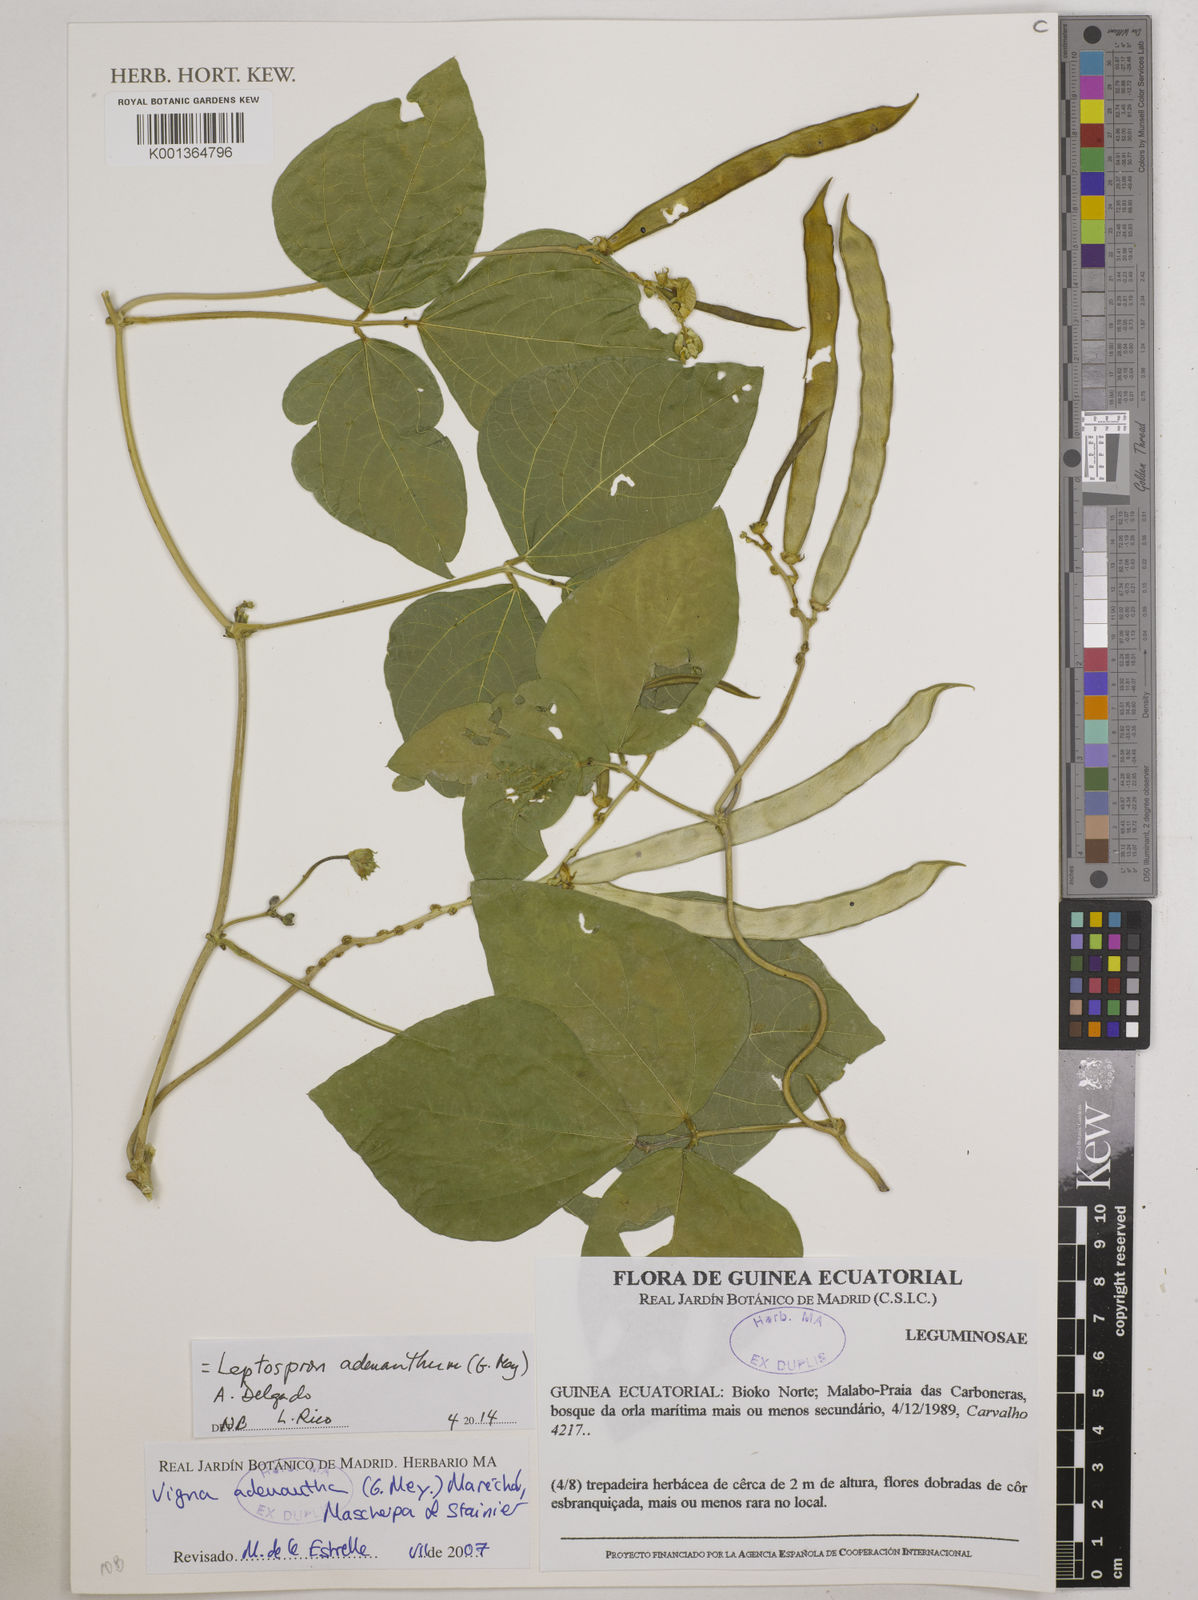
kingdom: Plantae
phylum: Tracheophyta
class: Magnoliopsida
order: Fabales
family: Fabaceae
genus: Leptospron
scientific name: Leptospron adenanthum
